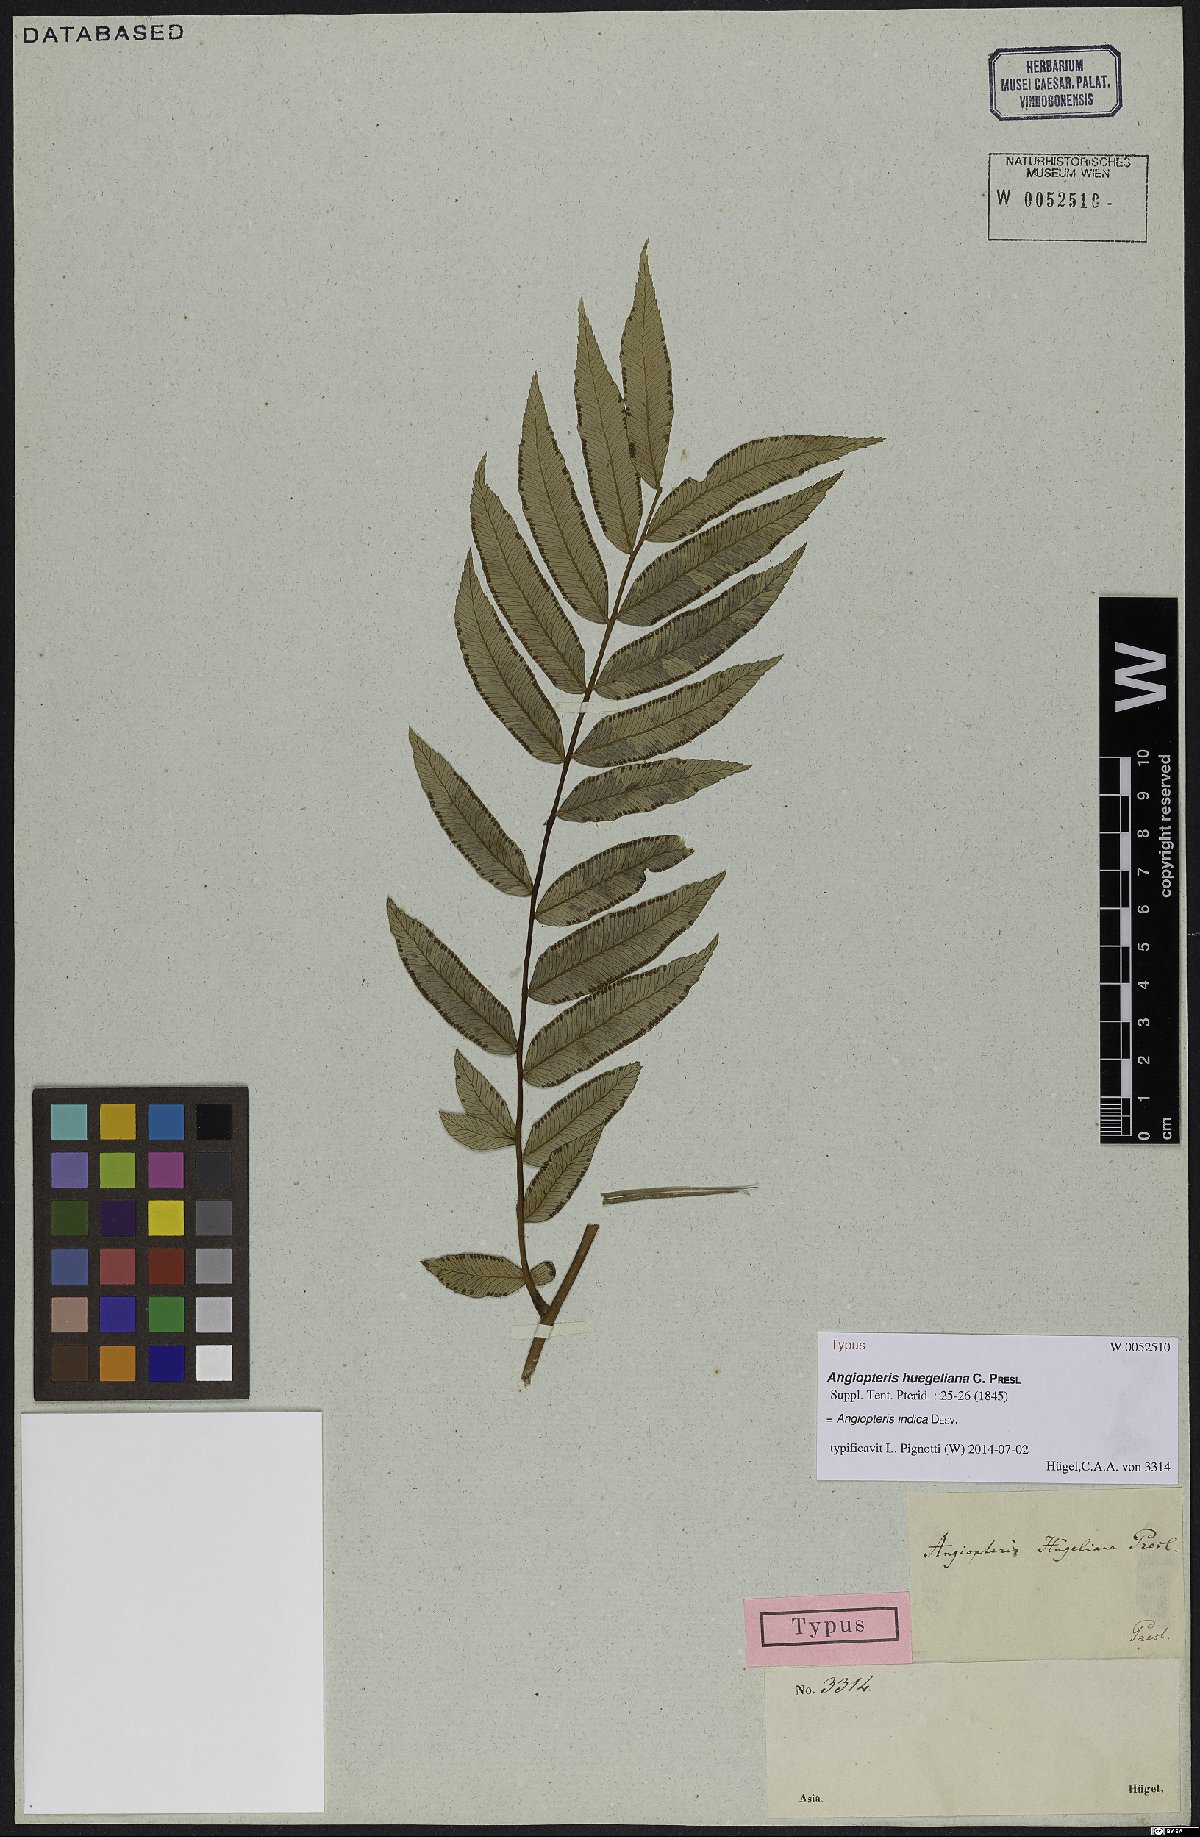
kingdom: Plantae
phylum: Tracheophyta
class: Polypodiopsida
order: Marattiales
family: Marattiaceae
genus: Angiopteris
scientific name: Angiopteris indica
